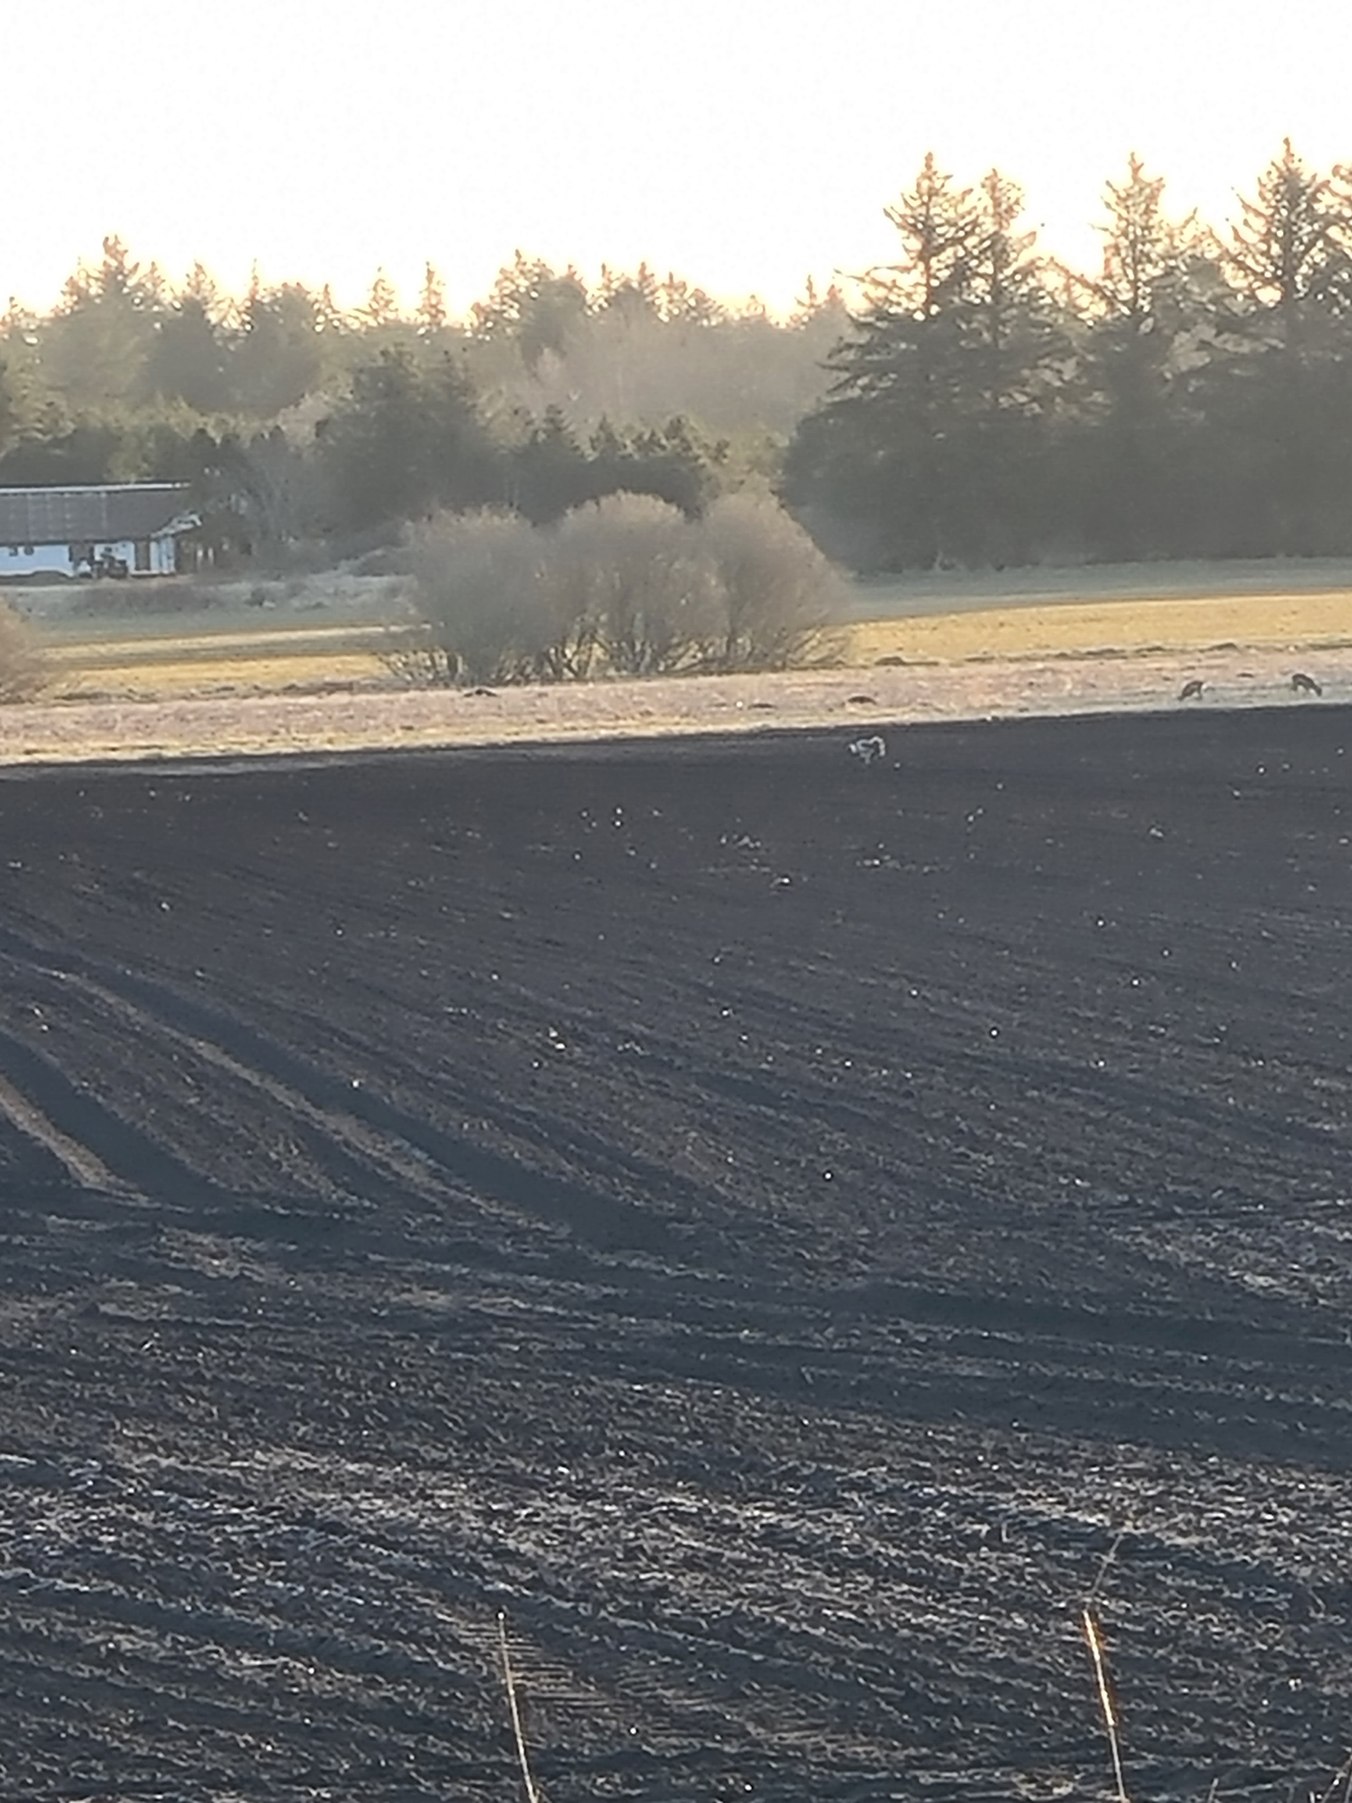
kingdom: Animalia
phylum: Chordata
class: Aves
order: Gruiformes
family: Gruidae
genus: Grus
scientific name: Grus grus
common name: Trane
